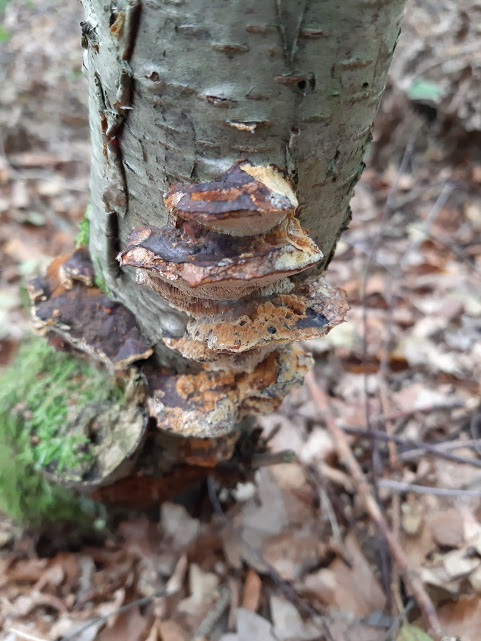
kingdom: Fungi
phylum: Basidiomycota
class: Agaricomycetes
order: Hymenochaetales
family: Hymenochaetaceae
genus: Xanthoporia
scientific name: Xanthoporia radiata
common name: elle-spejlporesvamp
